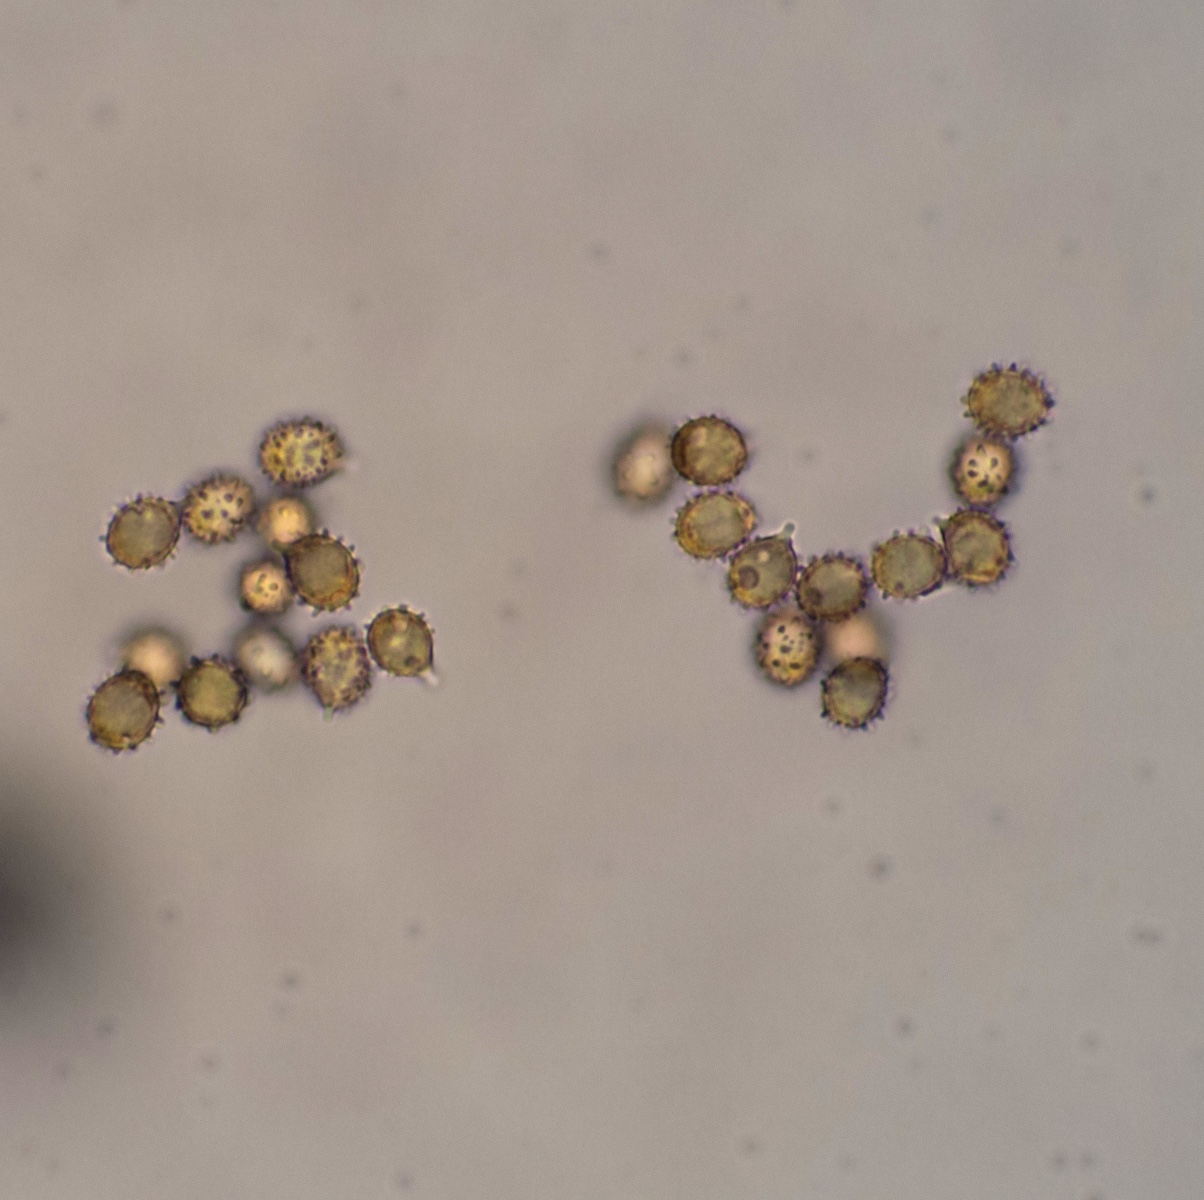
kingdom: Fungi
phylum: Basidiomycota
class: Agaricomycetes
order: Russulales
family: Russulaceae
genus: Russula
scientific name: Russula lilacea
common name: lilla skørhat
